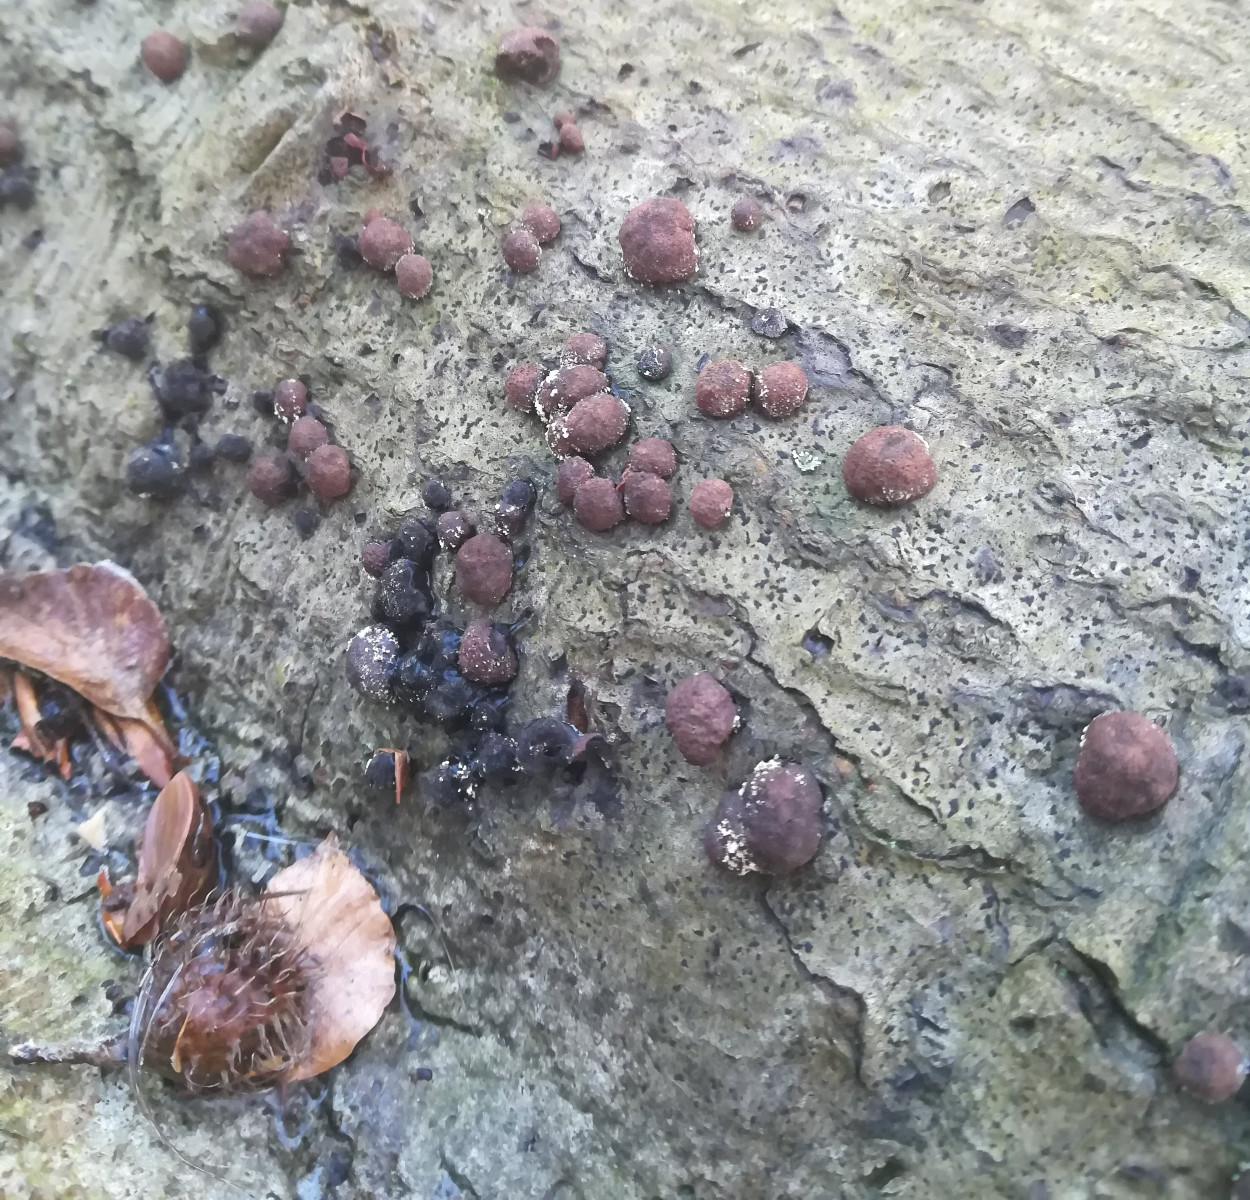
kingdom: Fungi
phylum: Ascomycota
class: Sordariomycetes
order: Xylariales
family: Hypoxylaceae
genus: Hypoxylon
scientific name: Hypoxylon fragiforme
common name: kuljordbær
